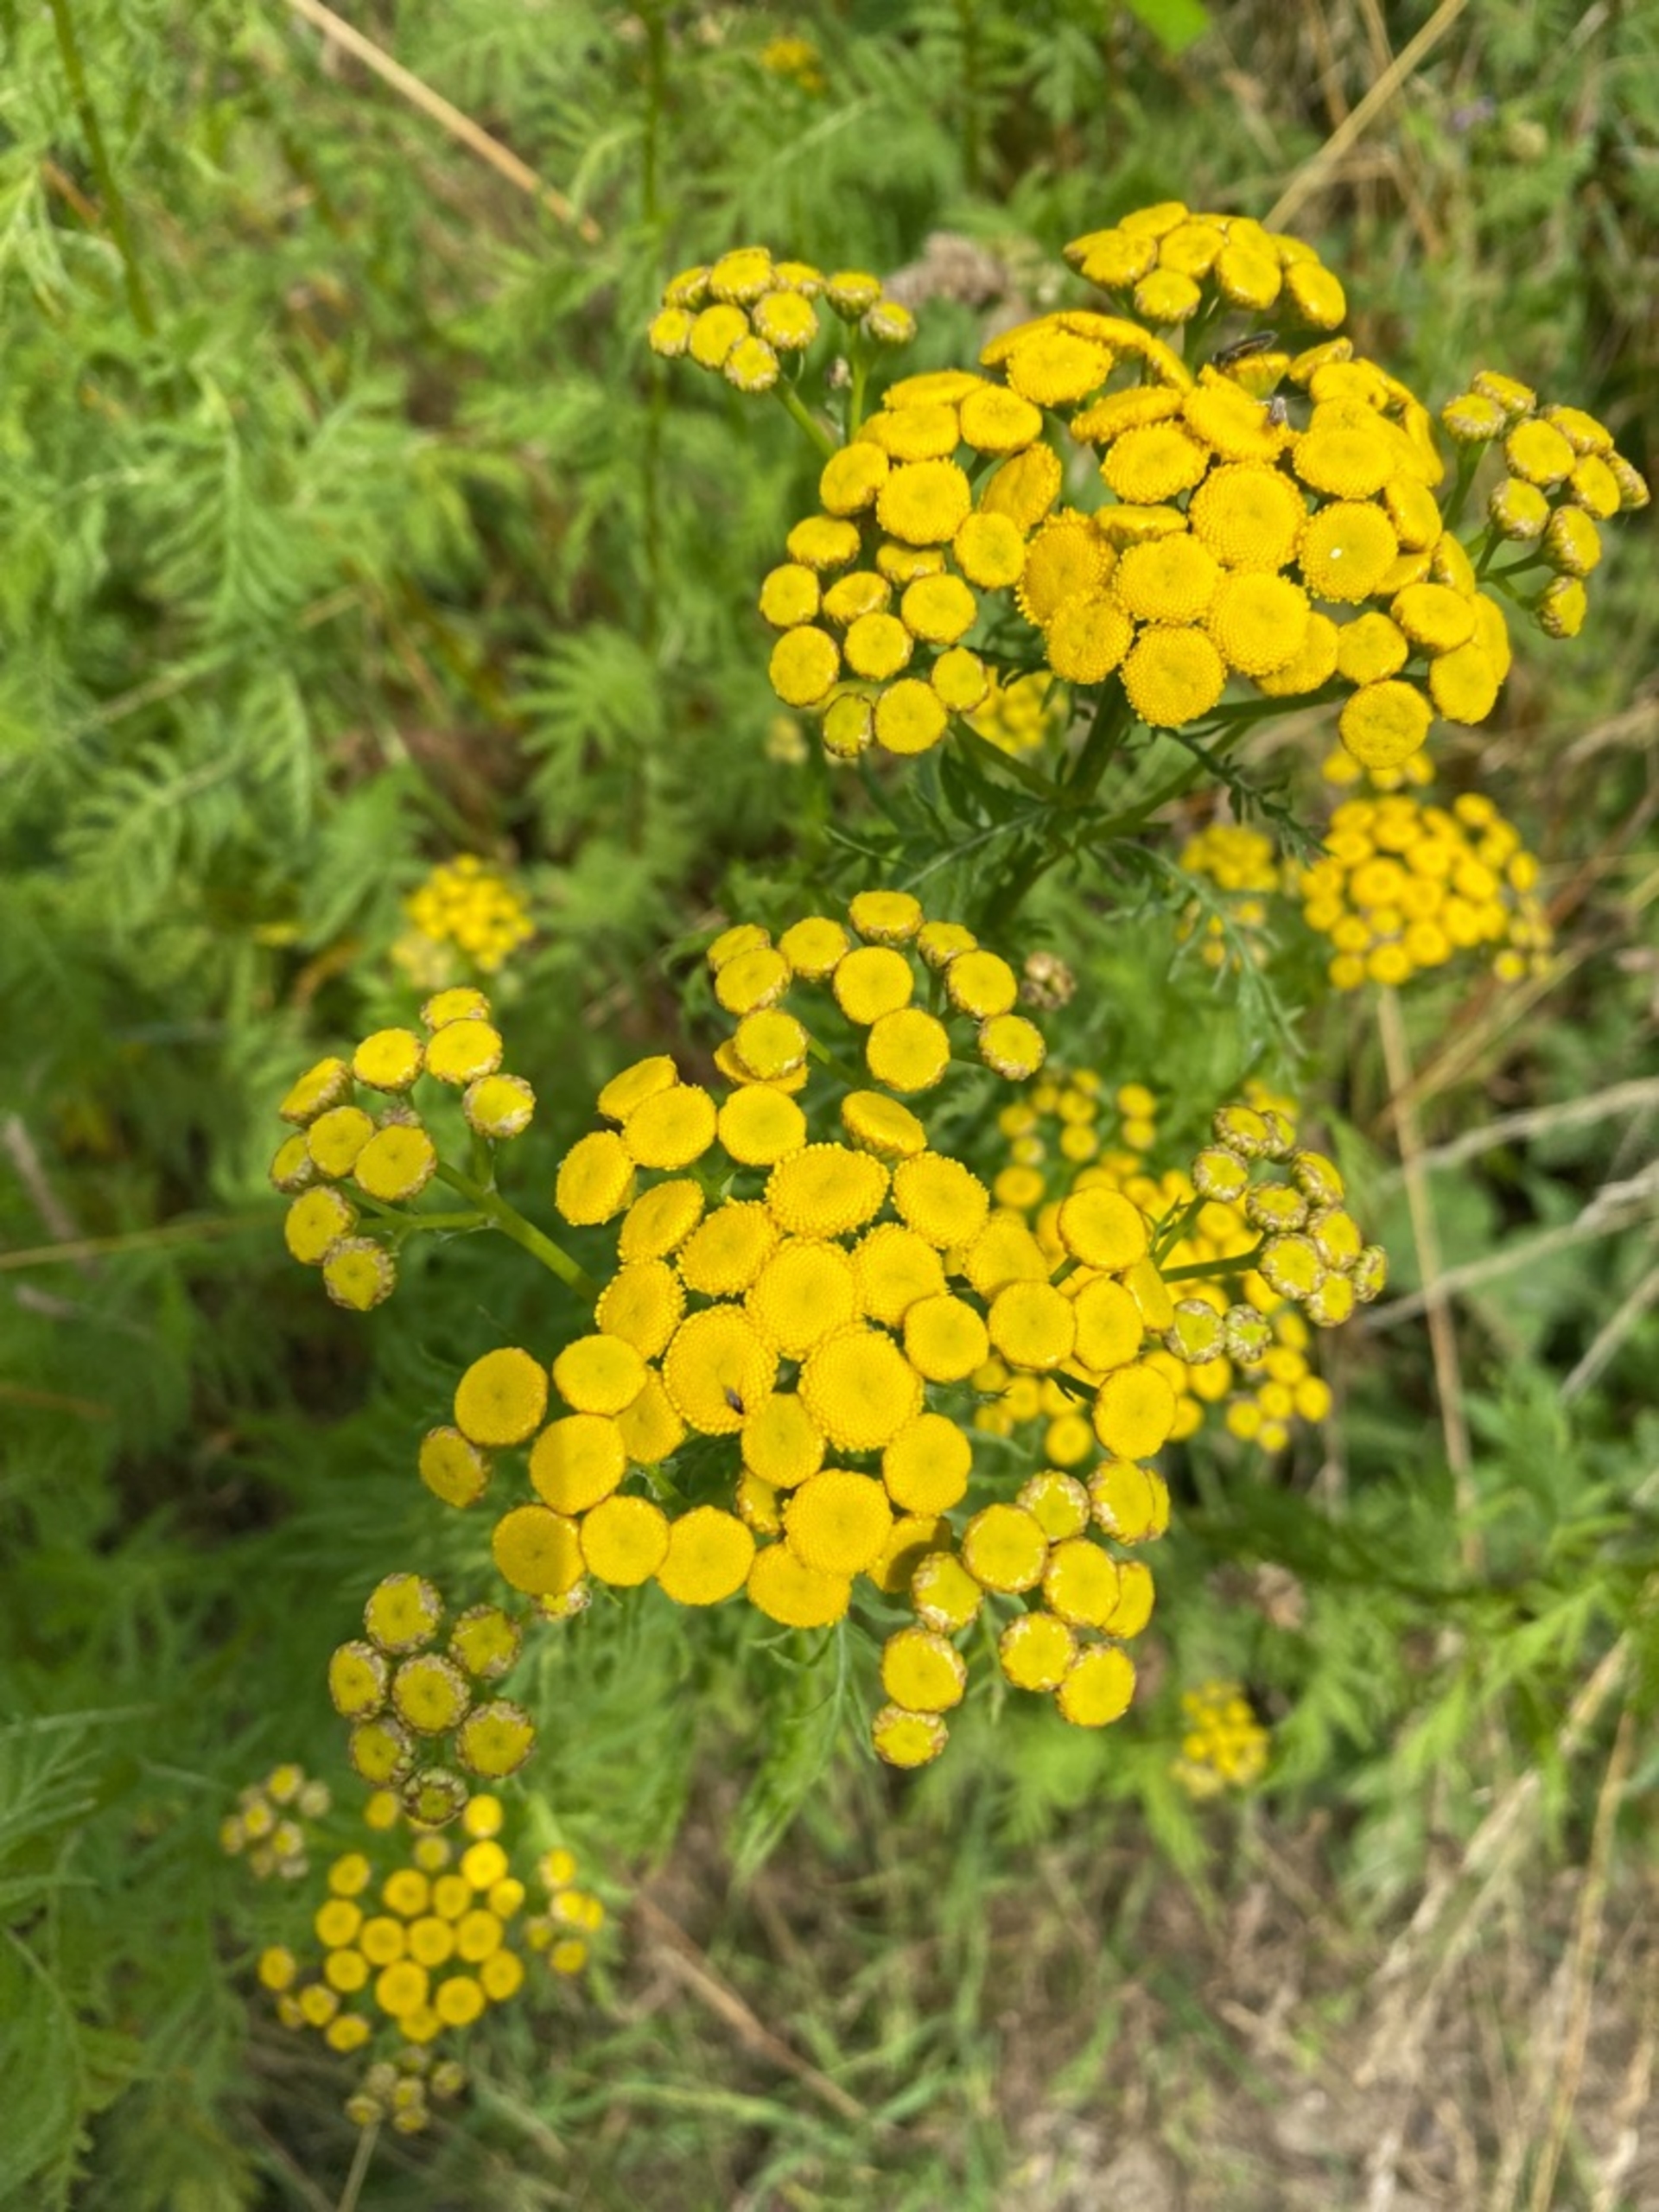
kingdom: Plantae
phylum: Tracheophyta
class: Magnoliopsida
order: Asterales
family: Asteraceae
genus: Tanacetum
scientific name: Tanacetum vulgare
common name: Rejnfan
